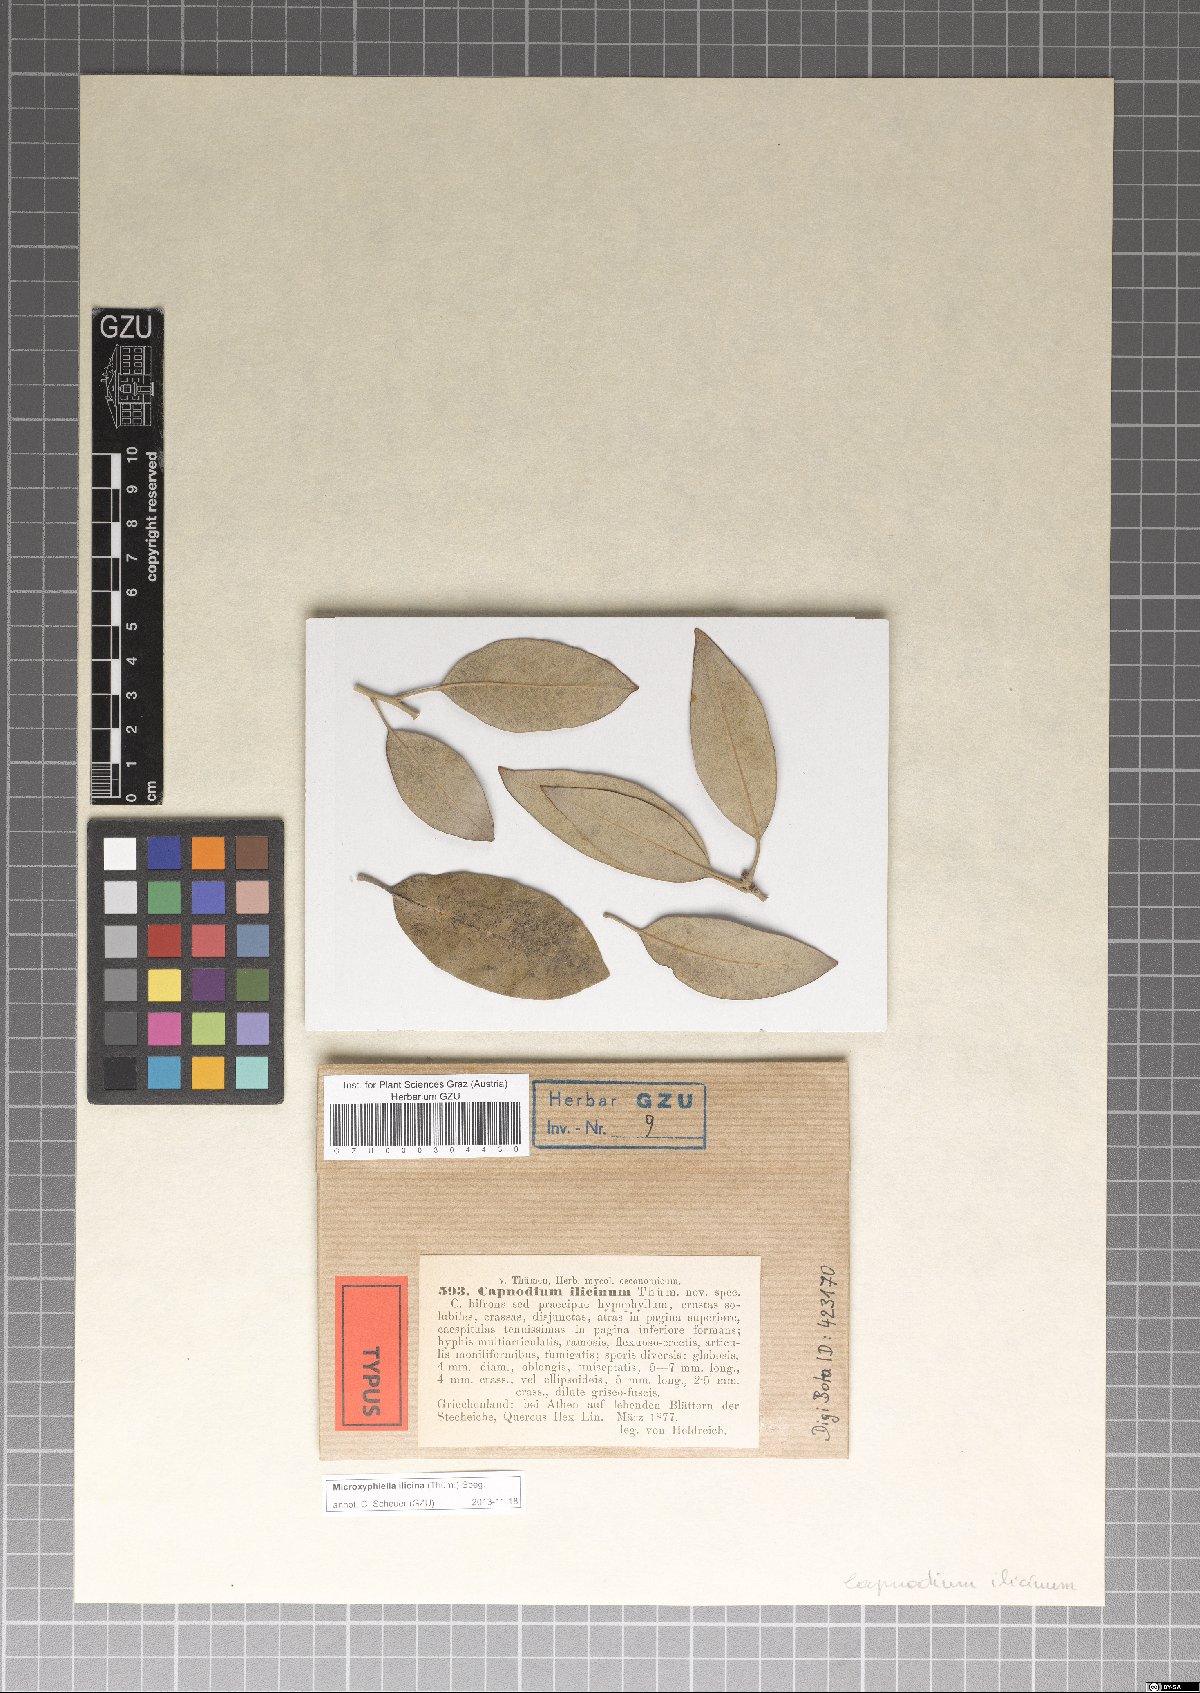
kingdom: Fungi
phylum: Ascomycota
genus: Microxyphiella
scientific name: Microxyphiella ilicina
